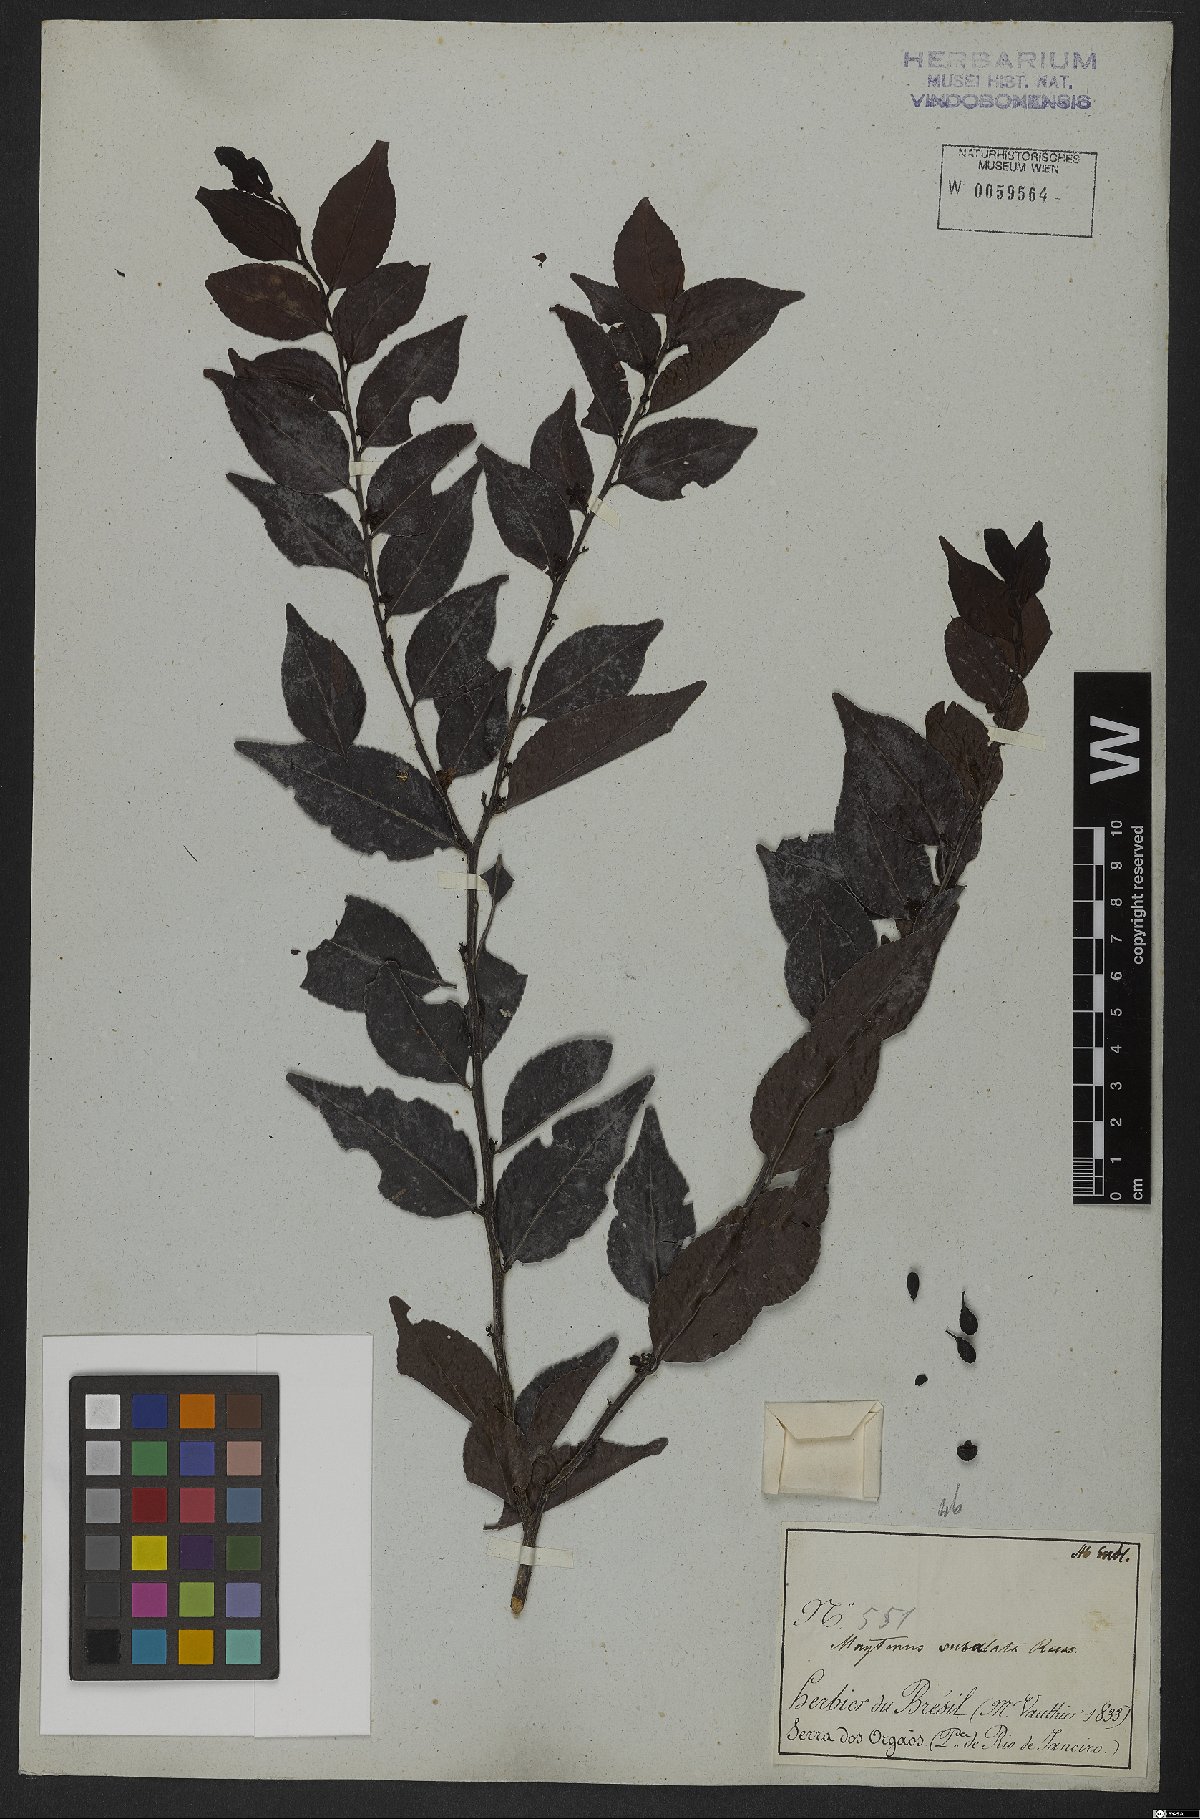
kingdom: Plantae
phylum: Tracheophyta
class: Magnoliopsida
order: Celastrales
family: Celastraceae
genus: Monteverdia
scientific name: Monteverdia subalata
